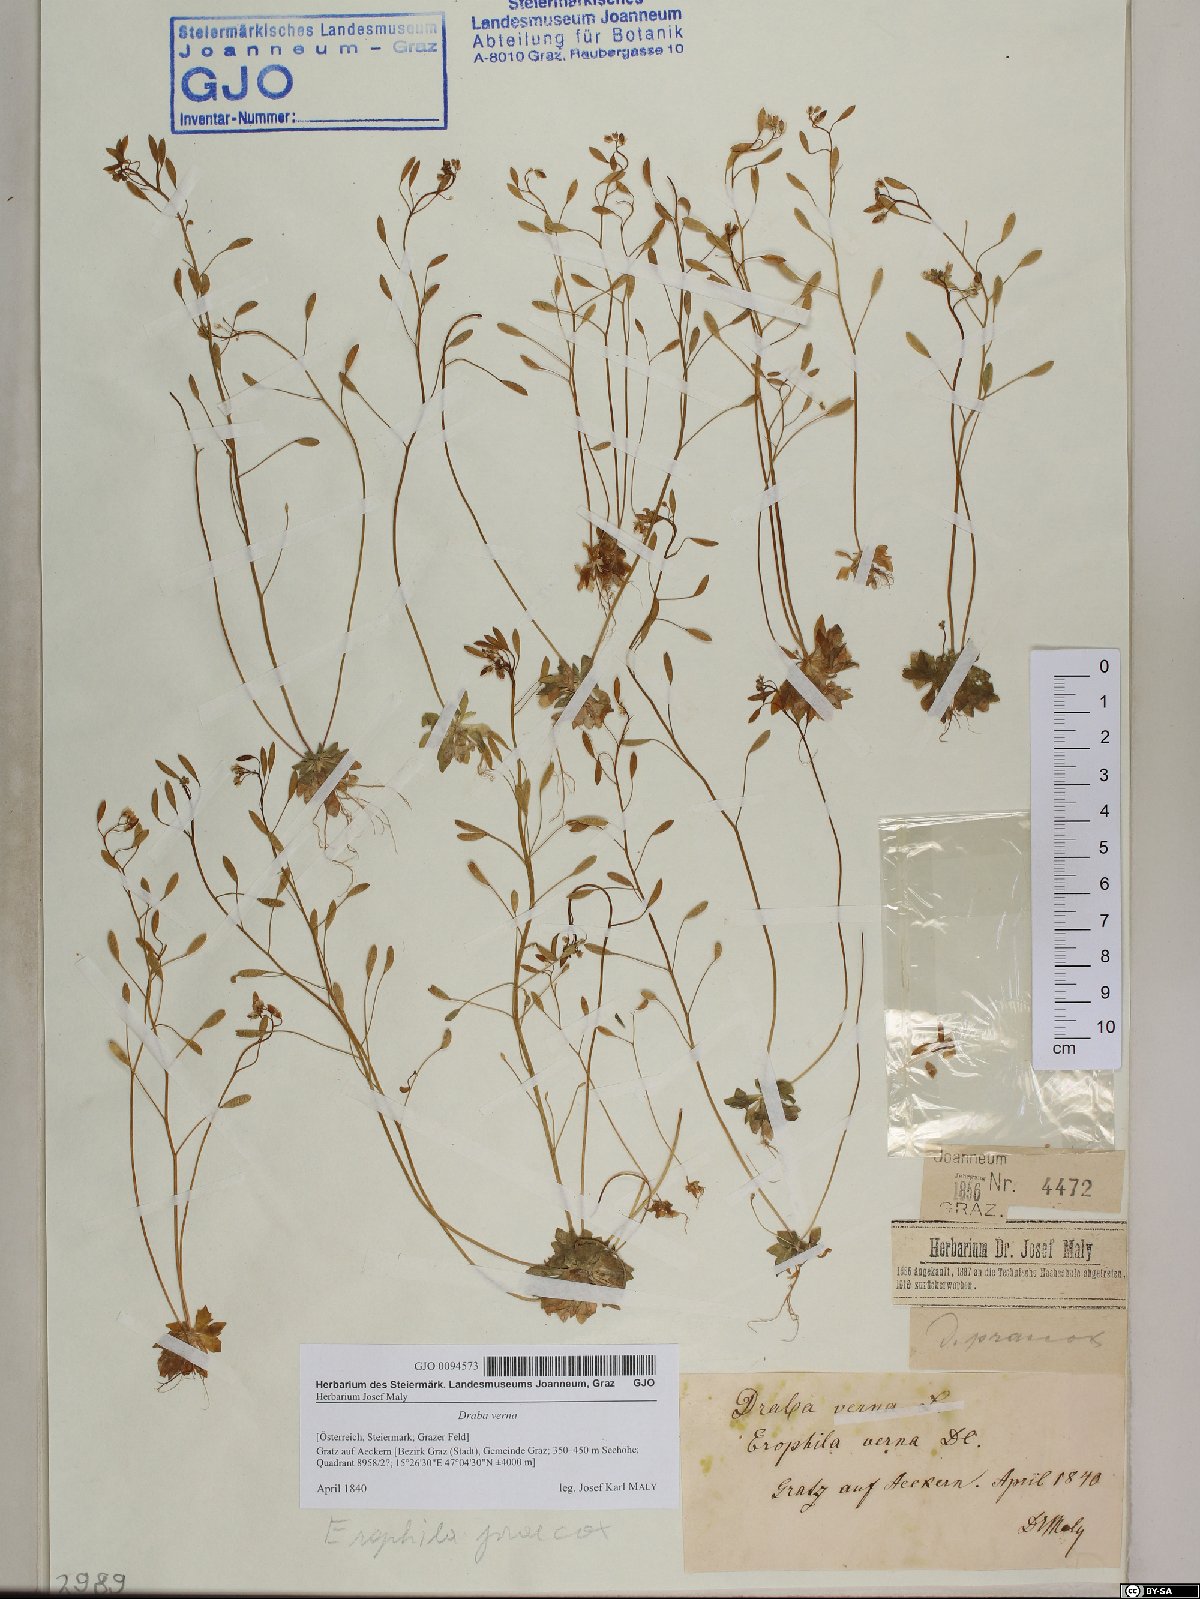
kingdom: Plantae
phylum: Tracheophyta
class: Magnoliopsida
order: Brassicales
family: Brassicaceae
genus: Draba
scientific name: Draba verna
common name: Spring draba
